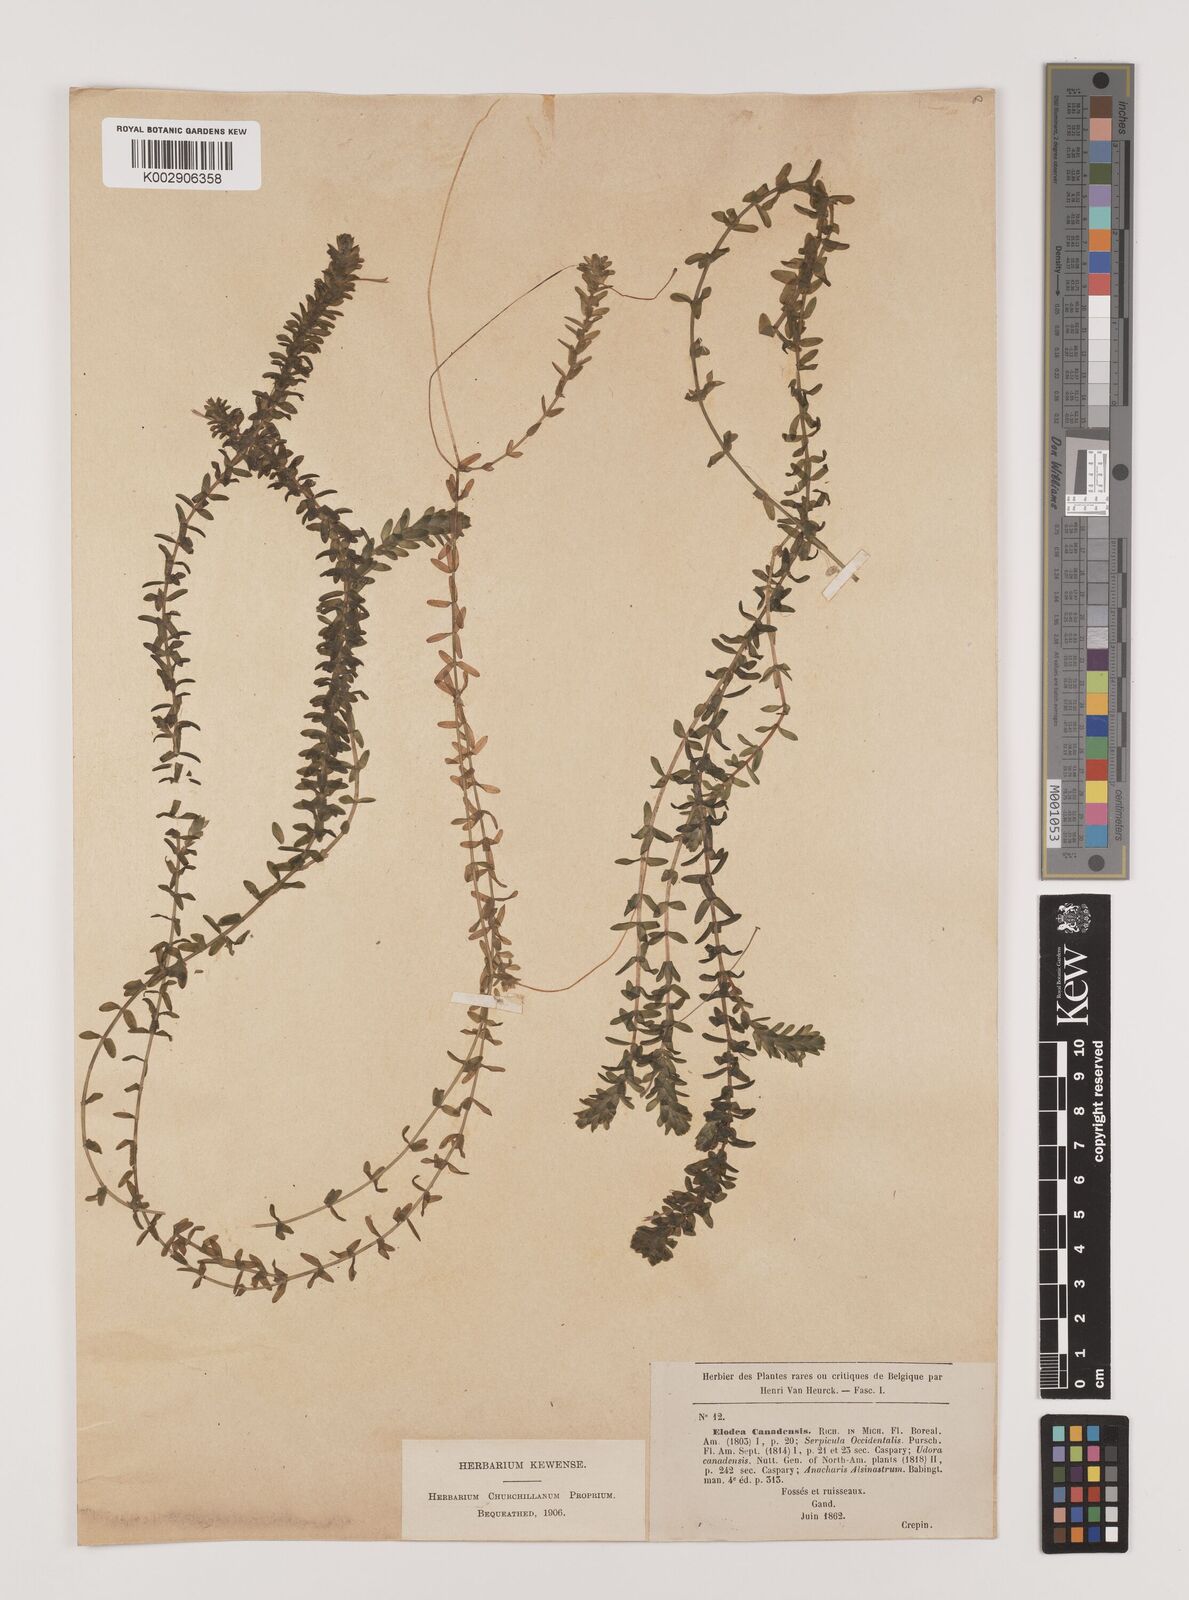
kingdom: Plantae
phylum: Tracheophyta
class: Liliopsida
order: Alismatales
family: Hydrocharitaceae
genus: Elodea
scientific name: Elodea canadensis
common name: Canadian waterweed
